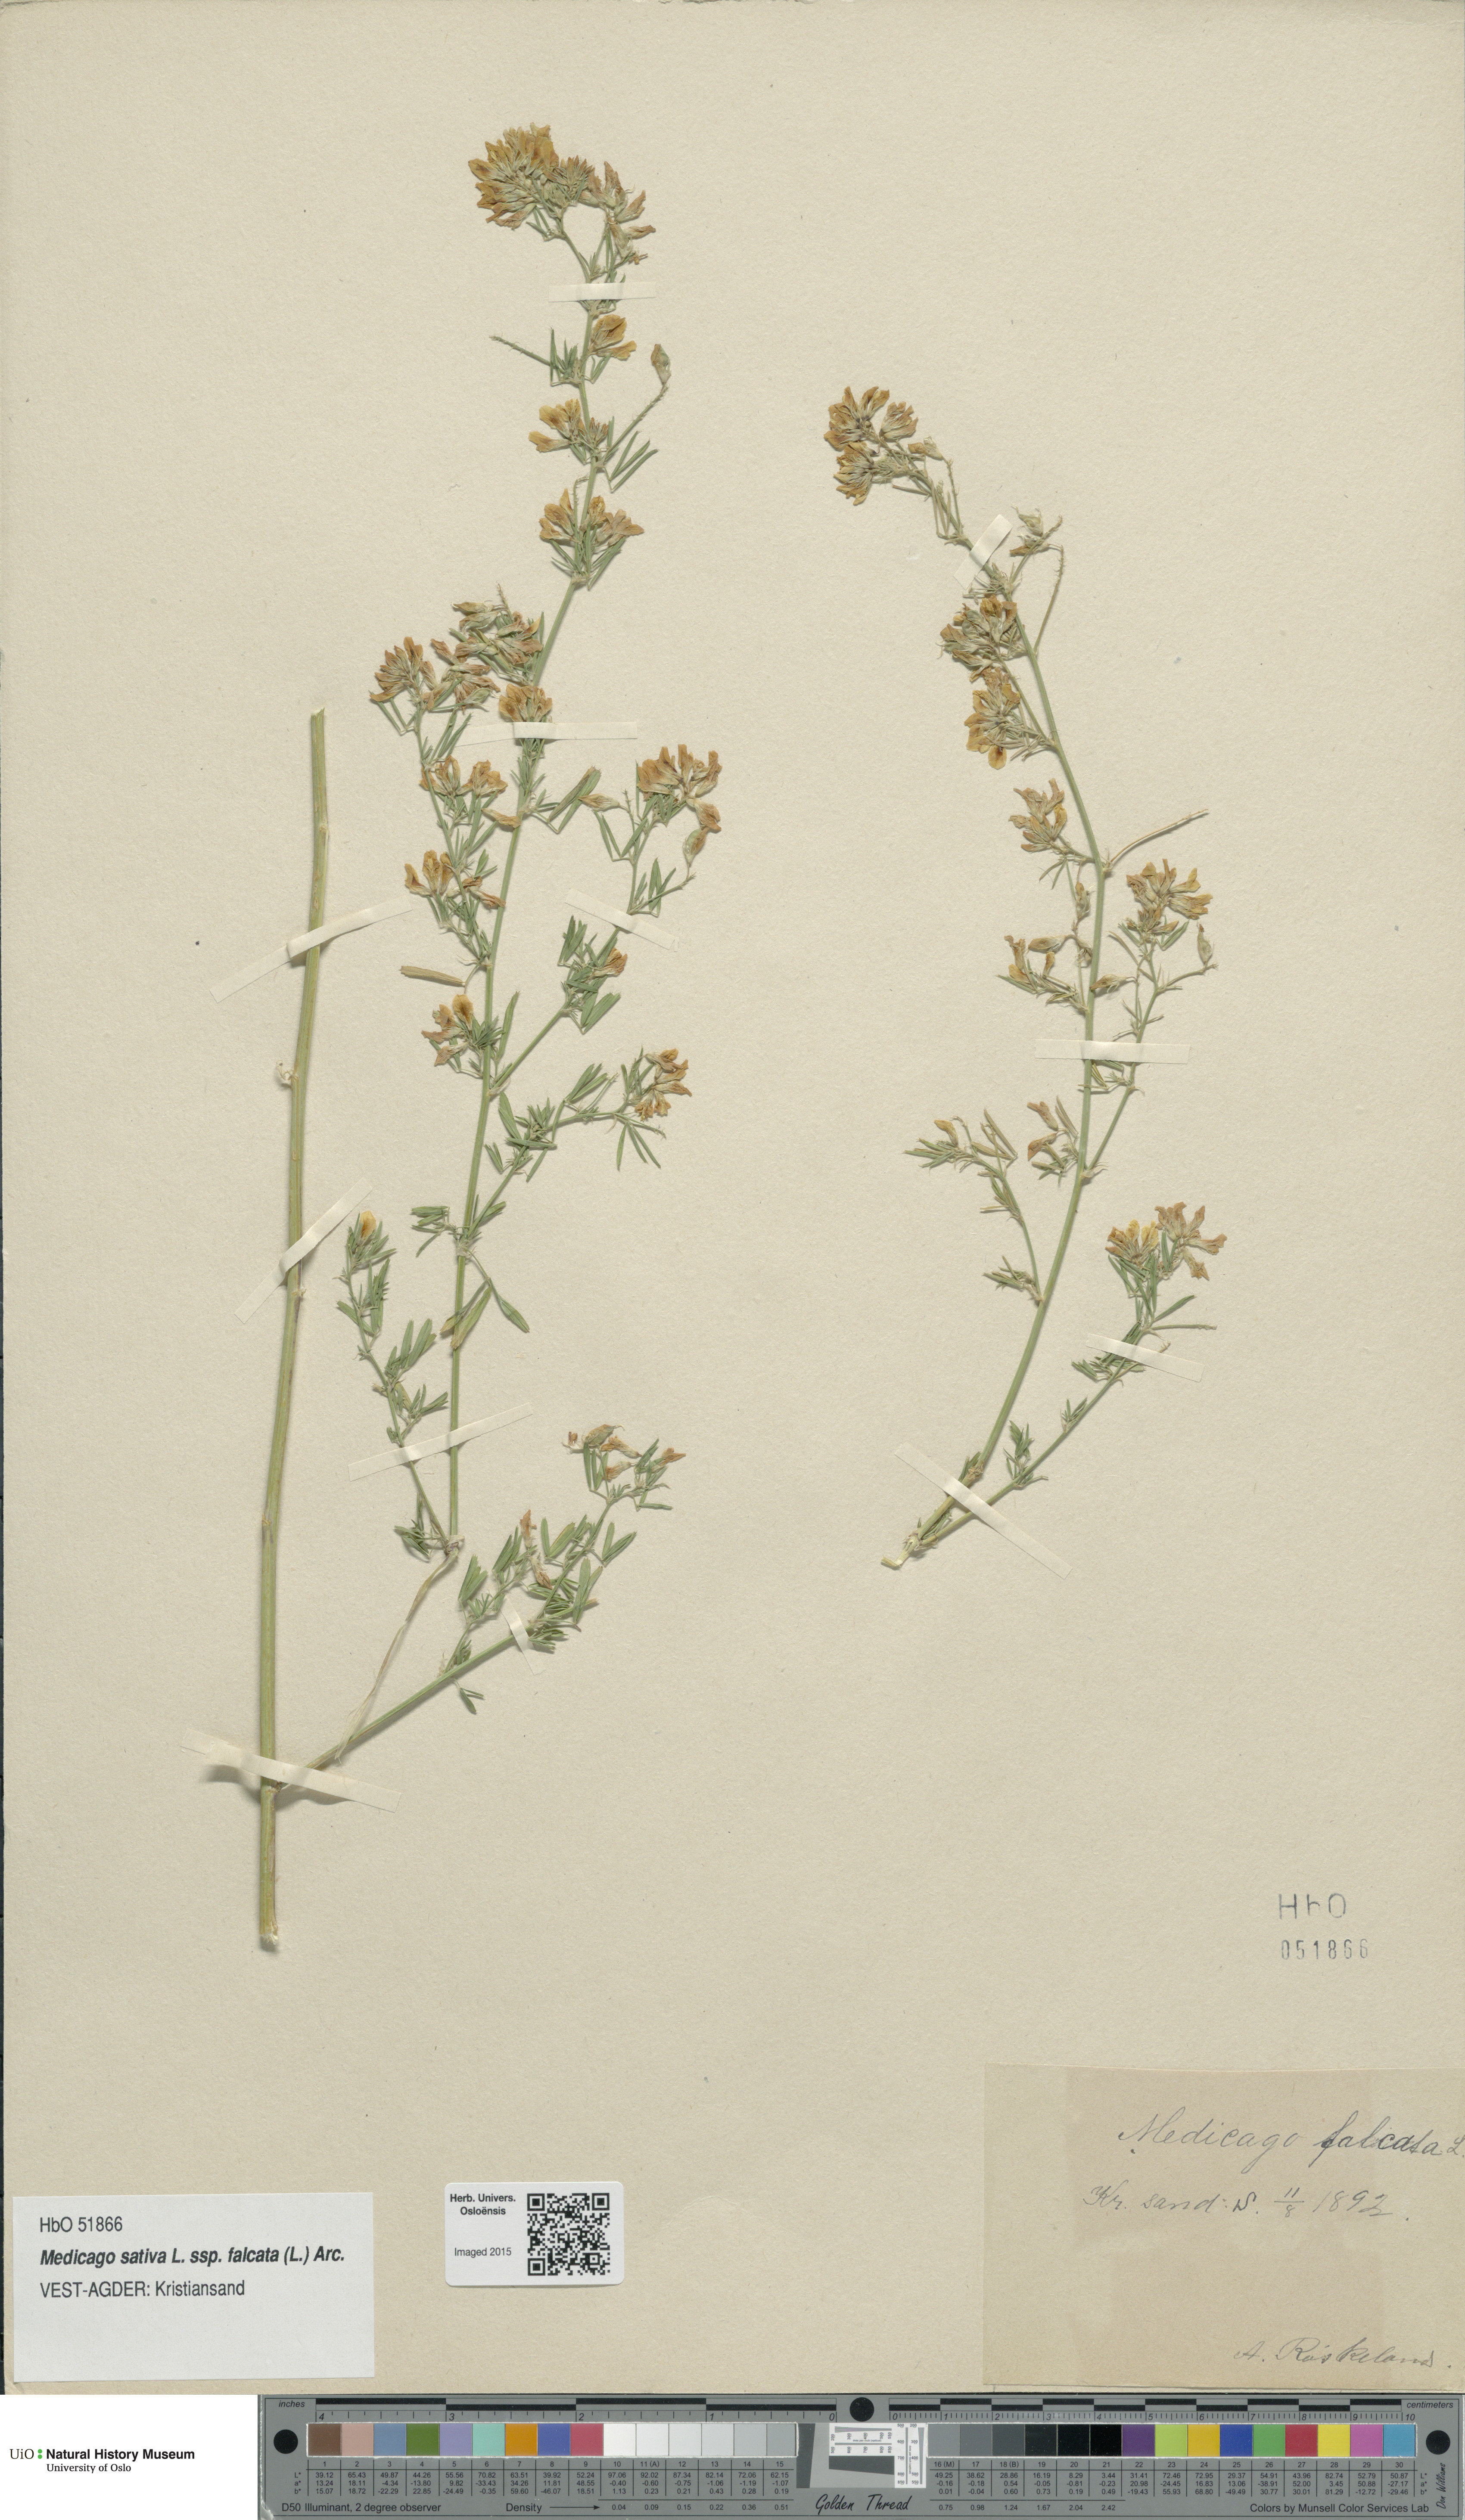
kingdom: Plantae
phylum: Tracheophyta
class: Magnoliopsida
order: Fabales
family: Fabaceae
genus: Medicago
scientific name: Medicago falcata
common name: Sickle medick
